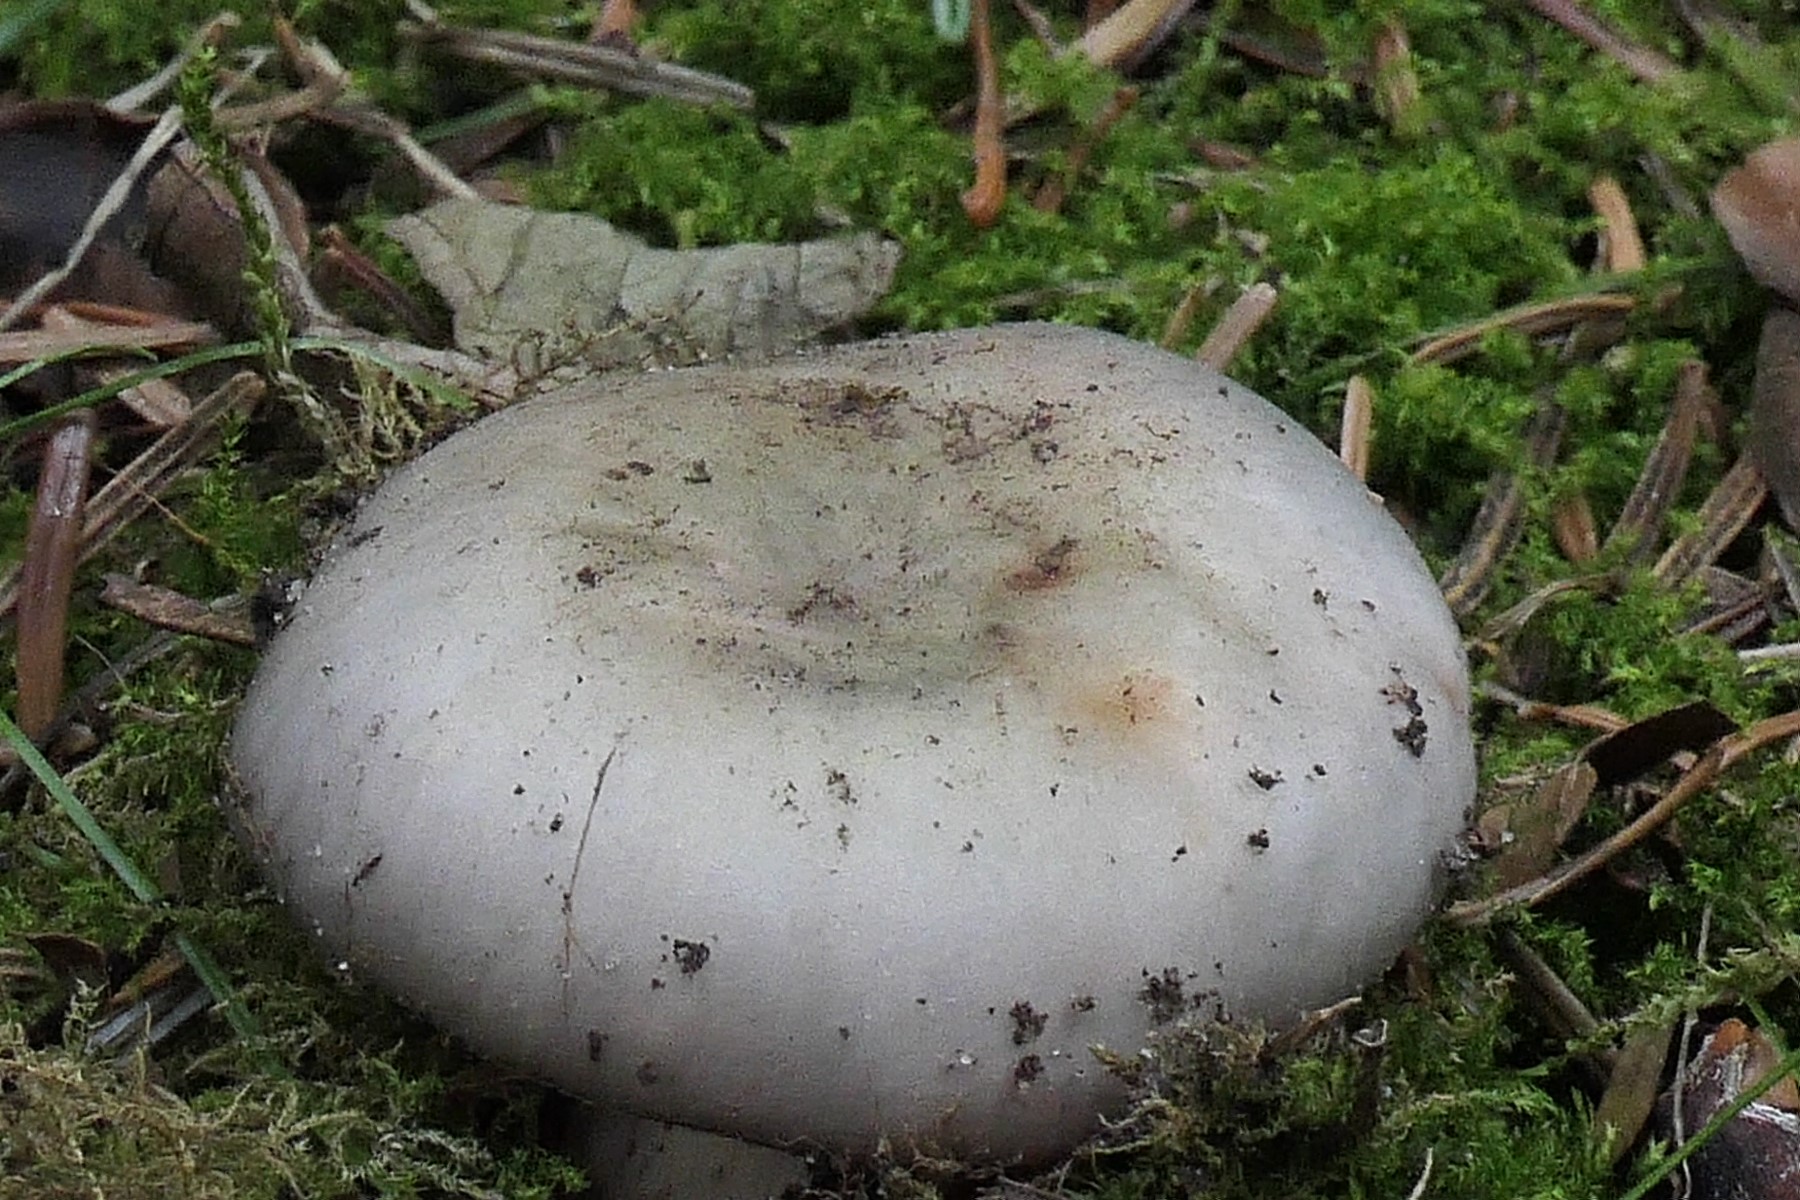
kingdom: Fungi
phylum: Basidiomycota
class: Agaricomycetes
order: Russulales
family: Russulaceae
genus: Russula
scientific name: Russula ionochlora
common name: violetgrøn skørhat
